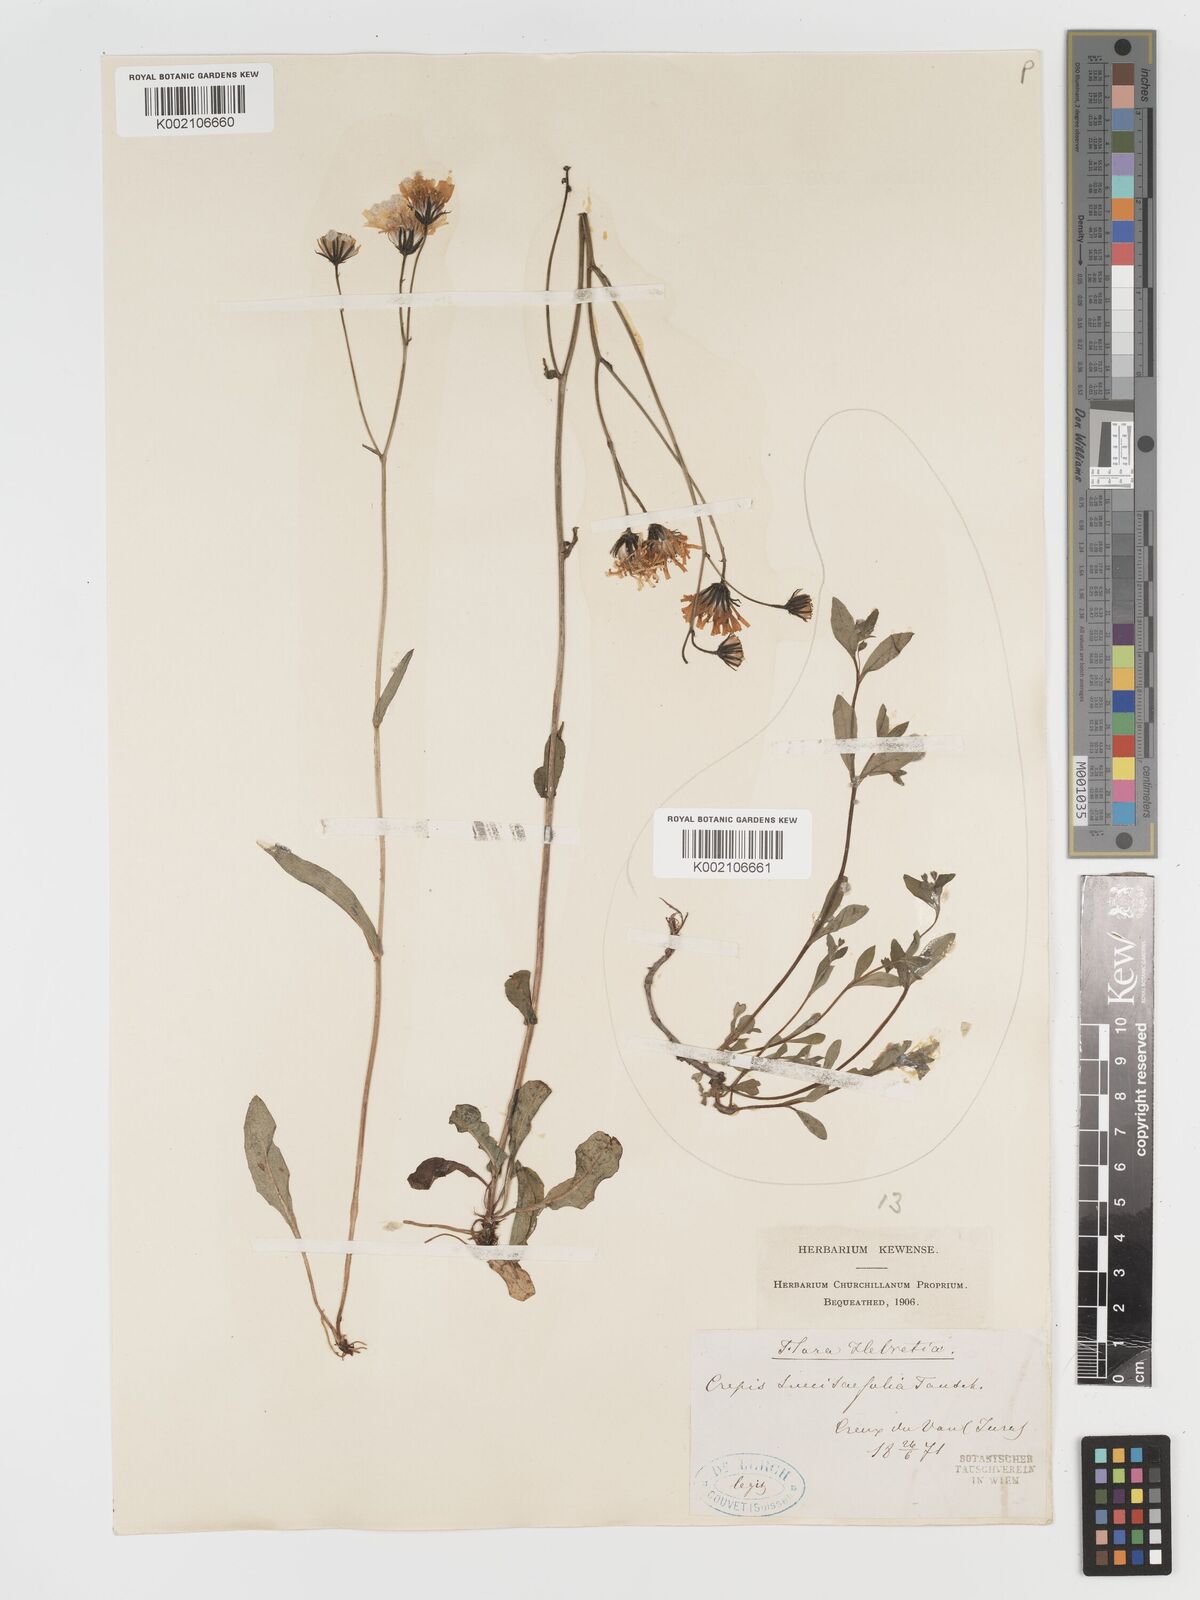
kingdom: Plantae
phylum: Tracheophyta
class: Magnoliopsida
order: Asterales
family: Asteraceae
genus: Crepis
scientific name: Crepis mollis
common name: Northern hawk's-beard
